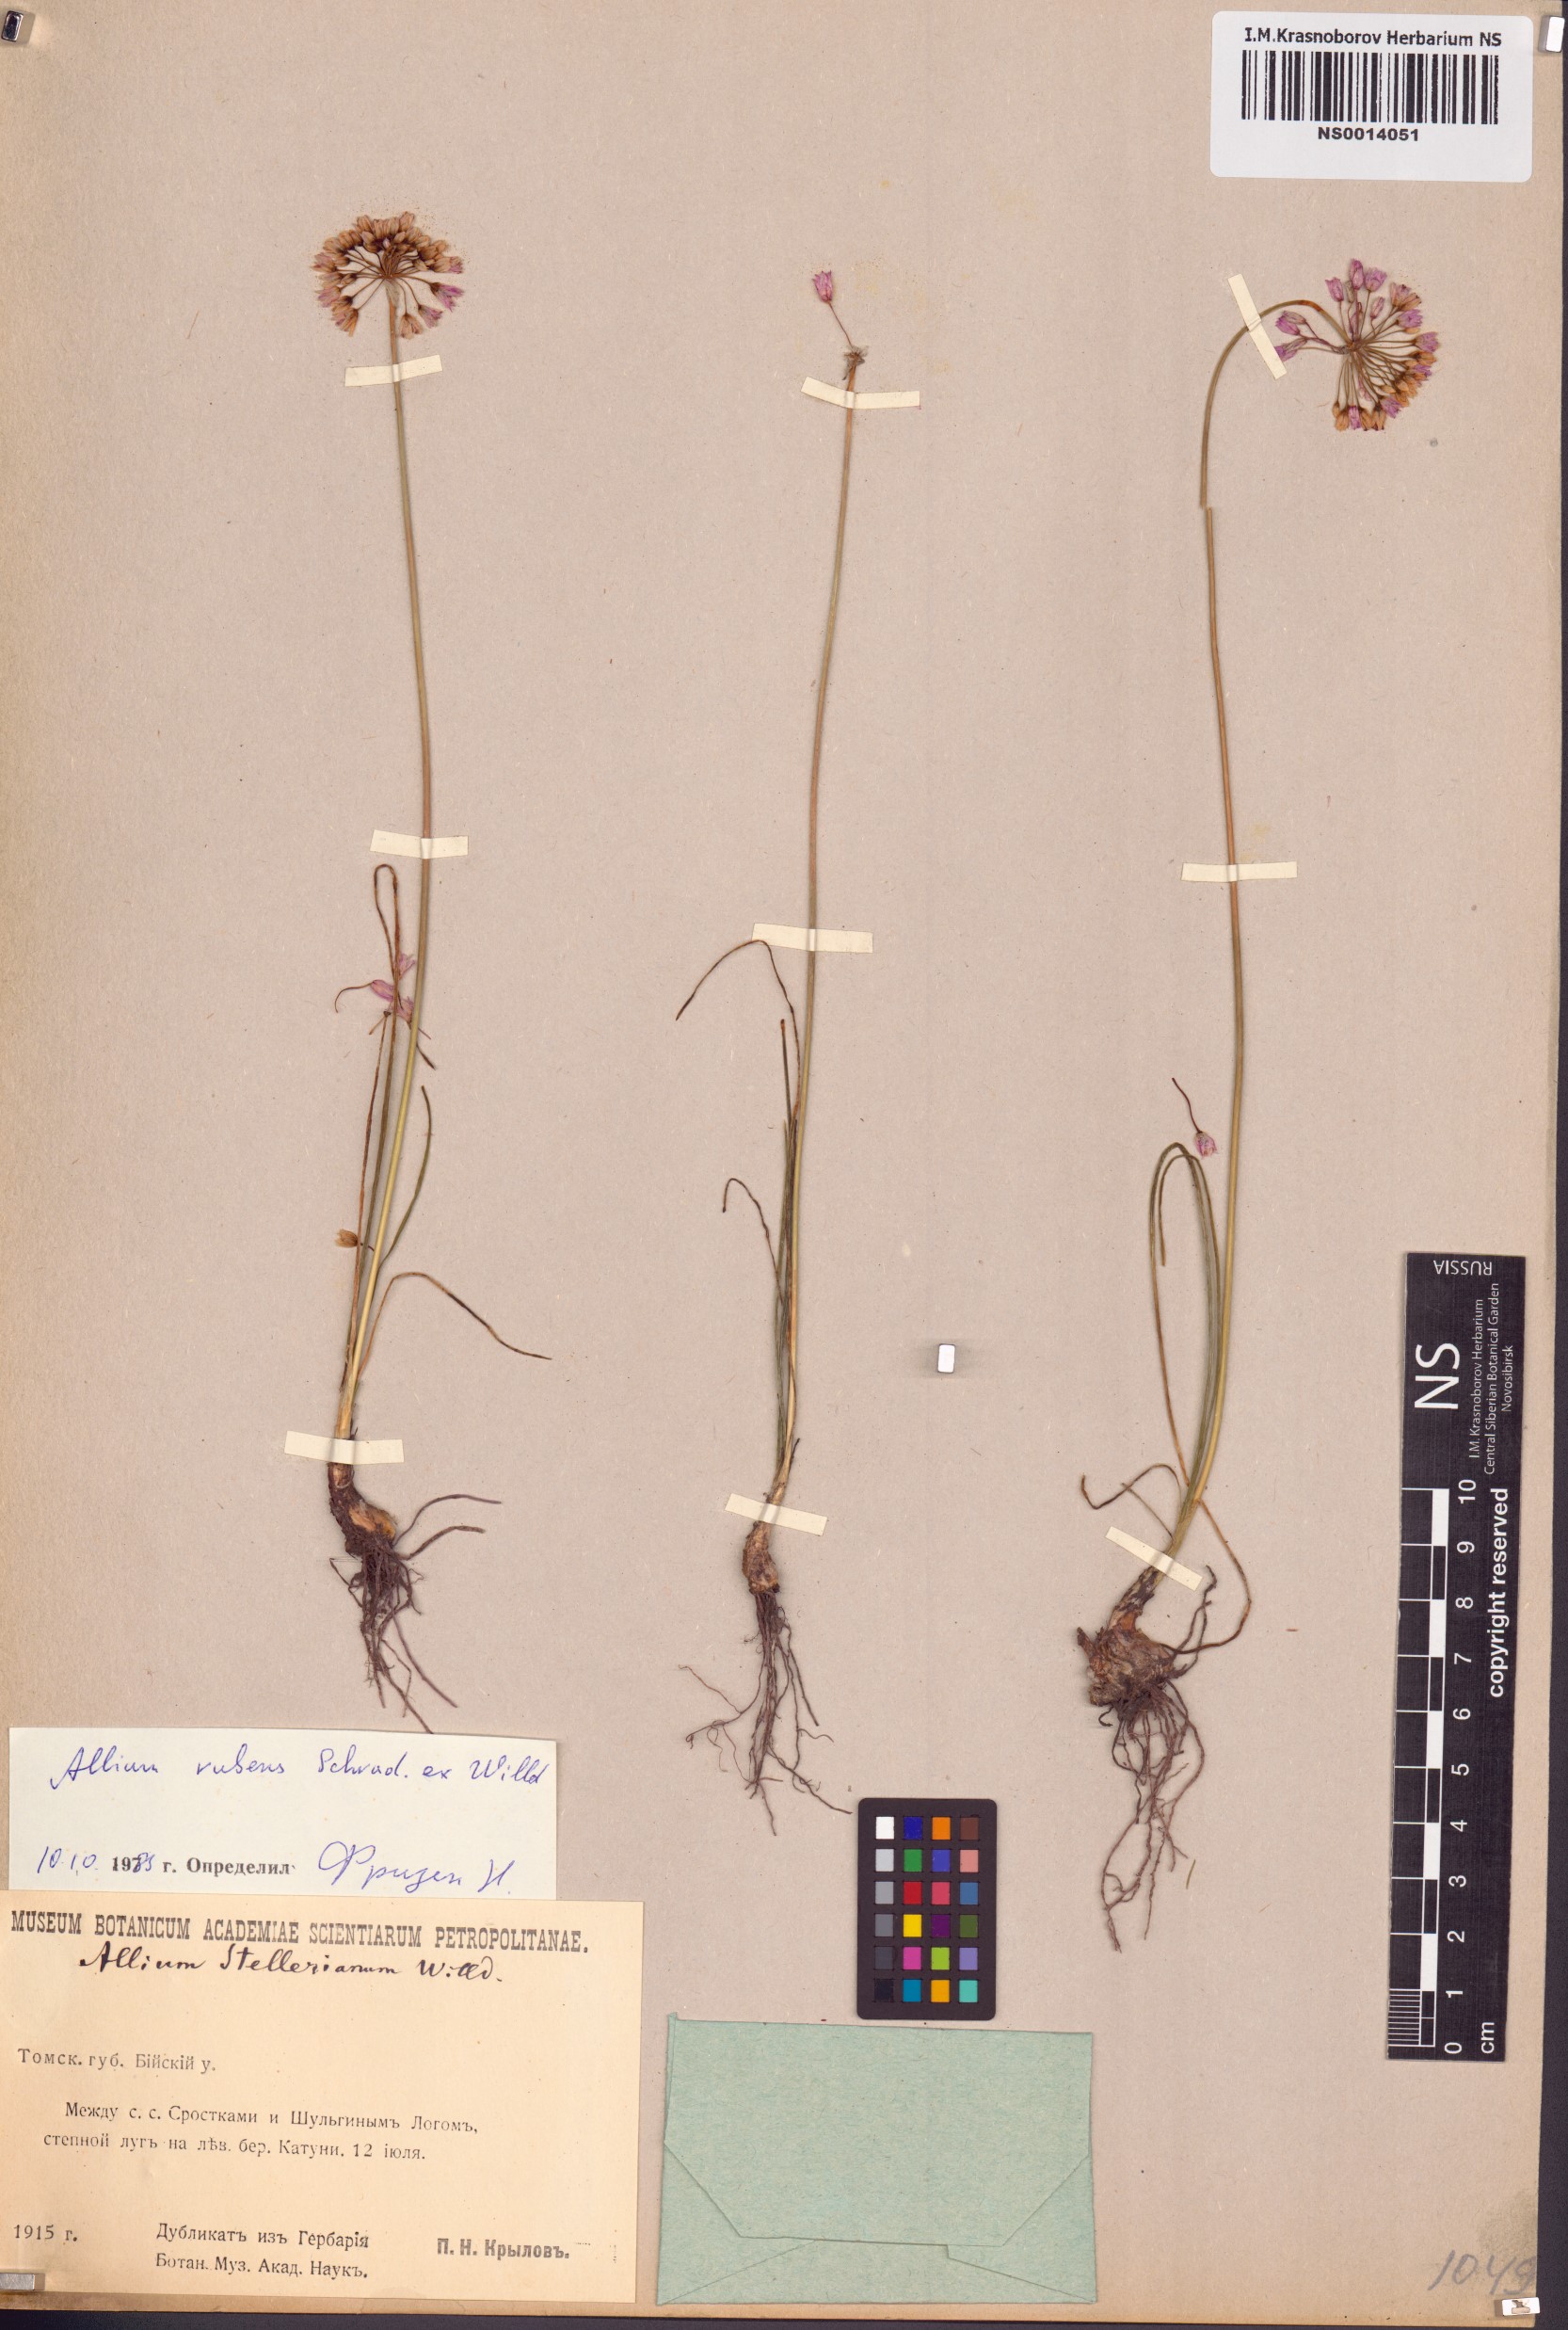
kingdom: Plantae
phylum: Tracheophyta
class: Liliopsida
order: Asparagales
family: Amaryllidaceae
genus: Allium
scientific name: Allium rubens
